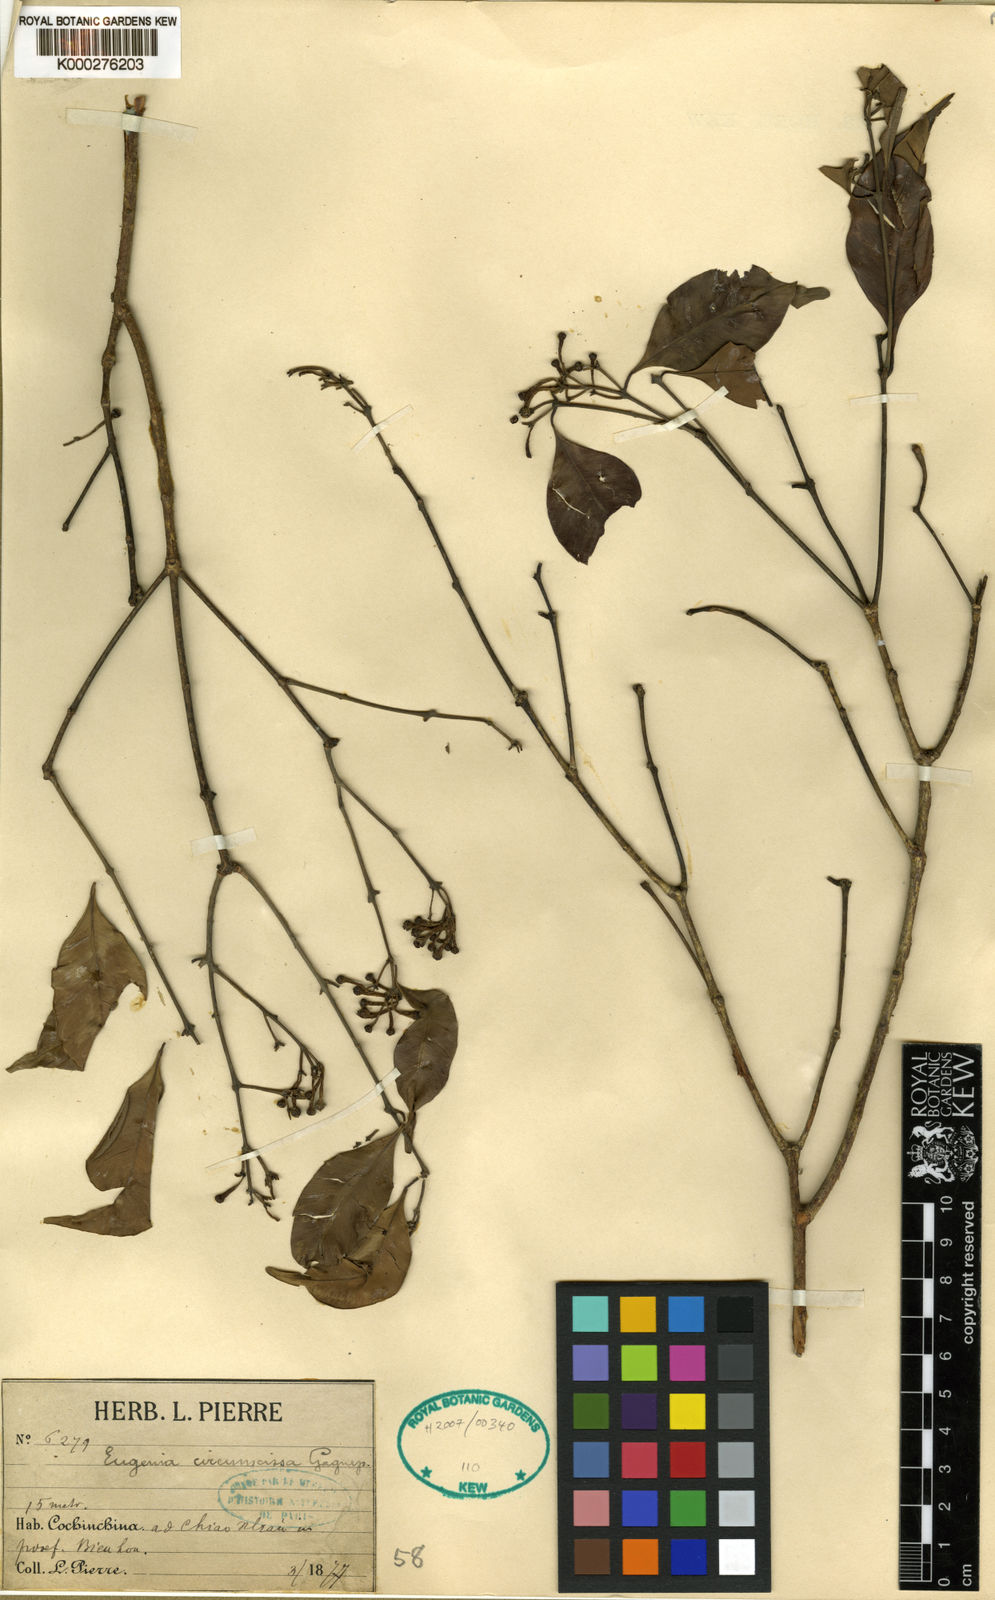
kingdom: Plantae
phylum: Tracheophyta
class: Magnoliopsida
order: Myrtales
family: Myrtaceae
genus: Syzygium
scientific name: Syzygium attenuatum
